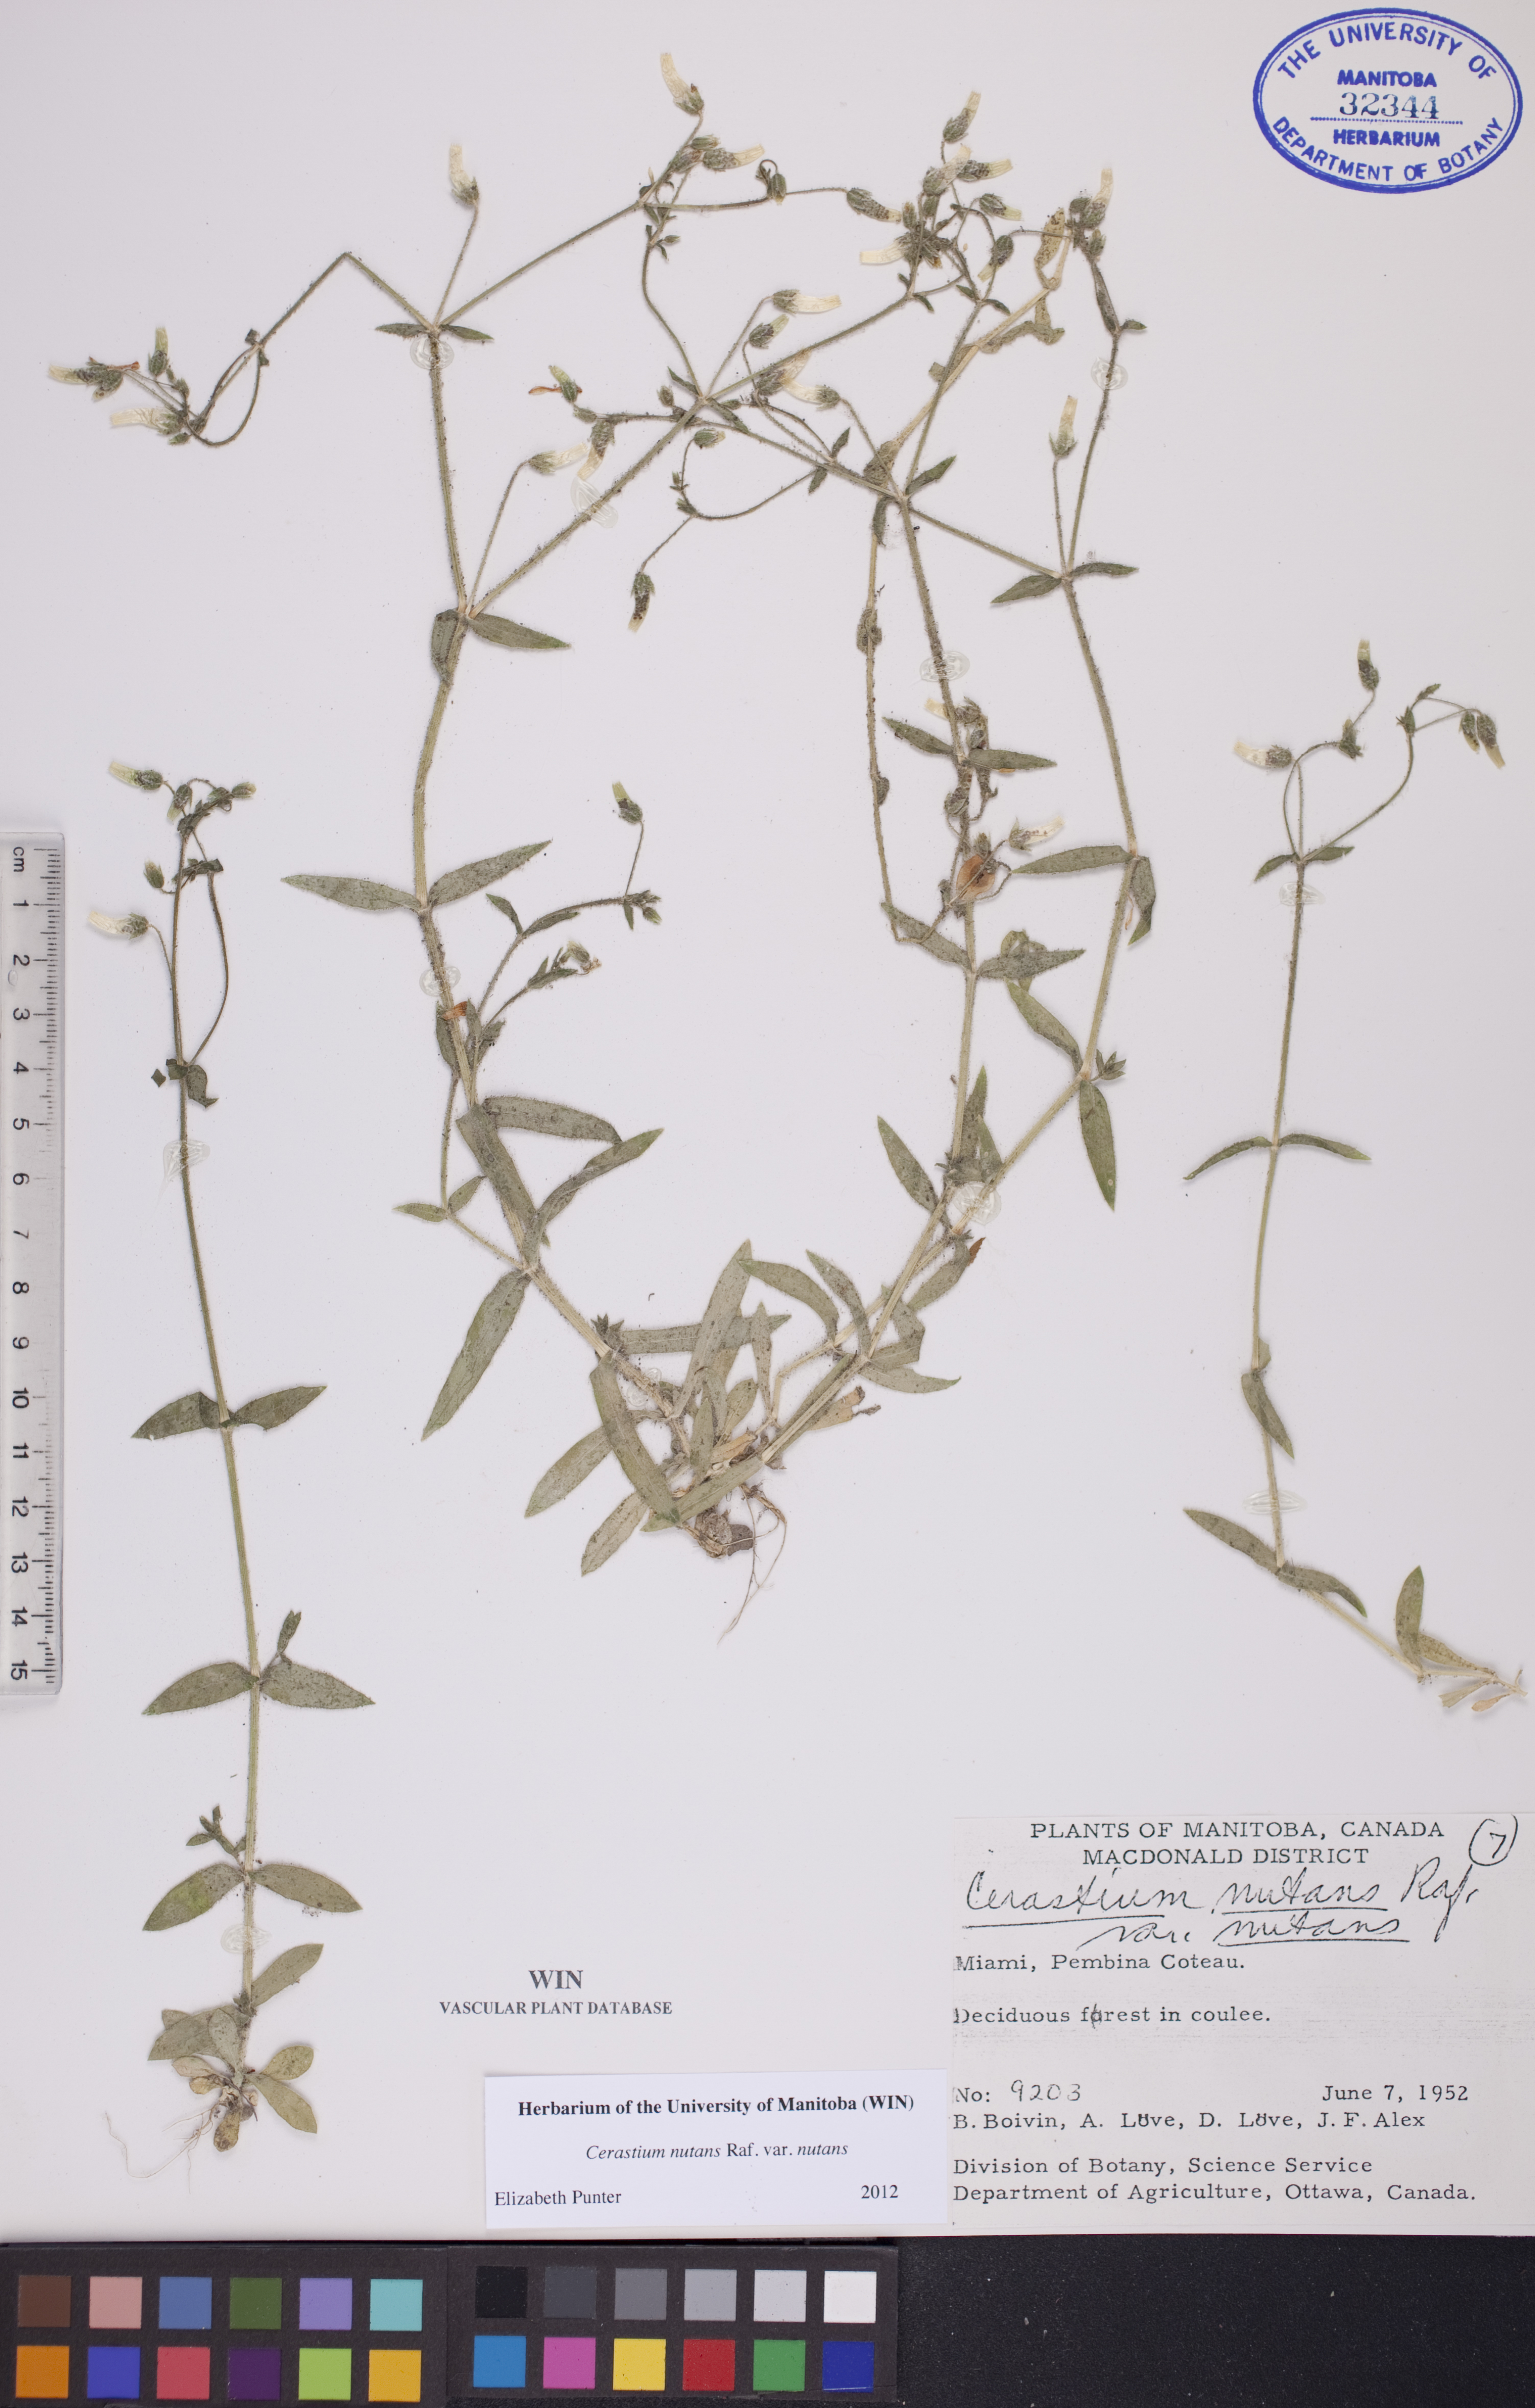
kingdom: Plantae
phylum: Tracheophyta
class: Magnoliopsida
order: Caryophyllales
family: Caryophyllaceae
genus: Cerastium
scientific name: Cerastium nutans
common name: Long-stalked chickweed
